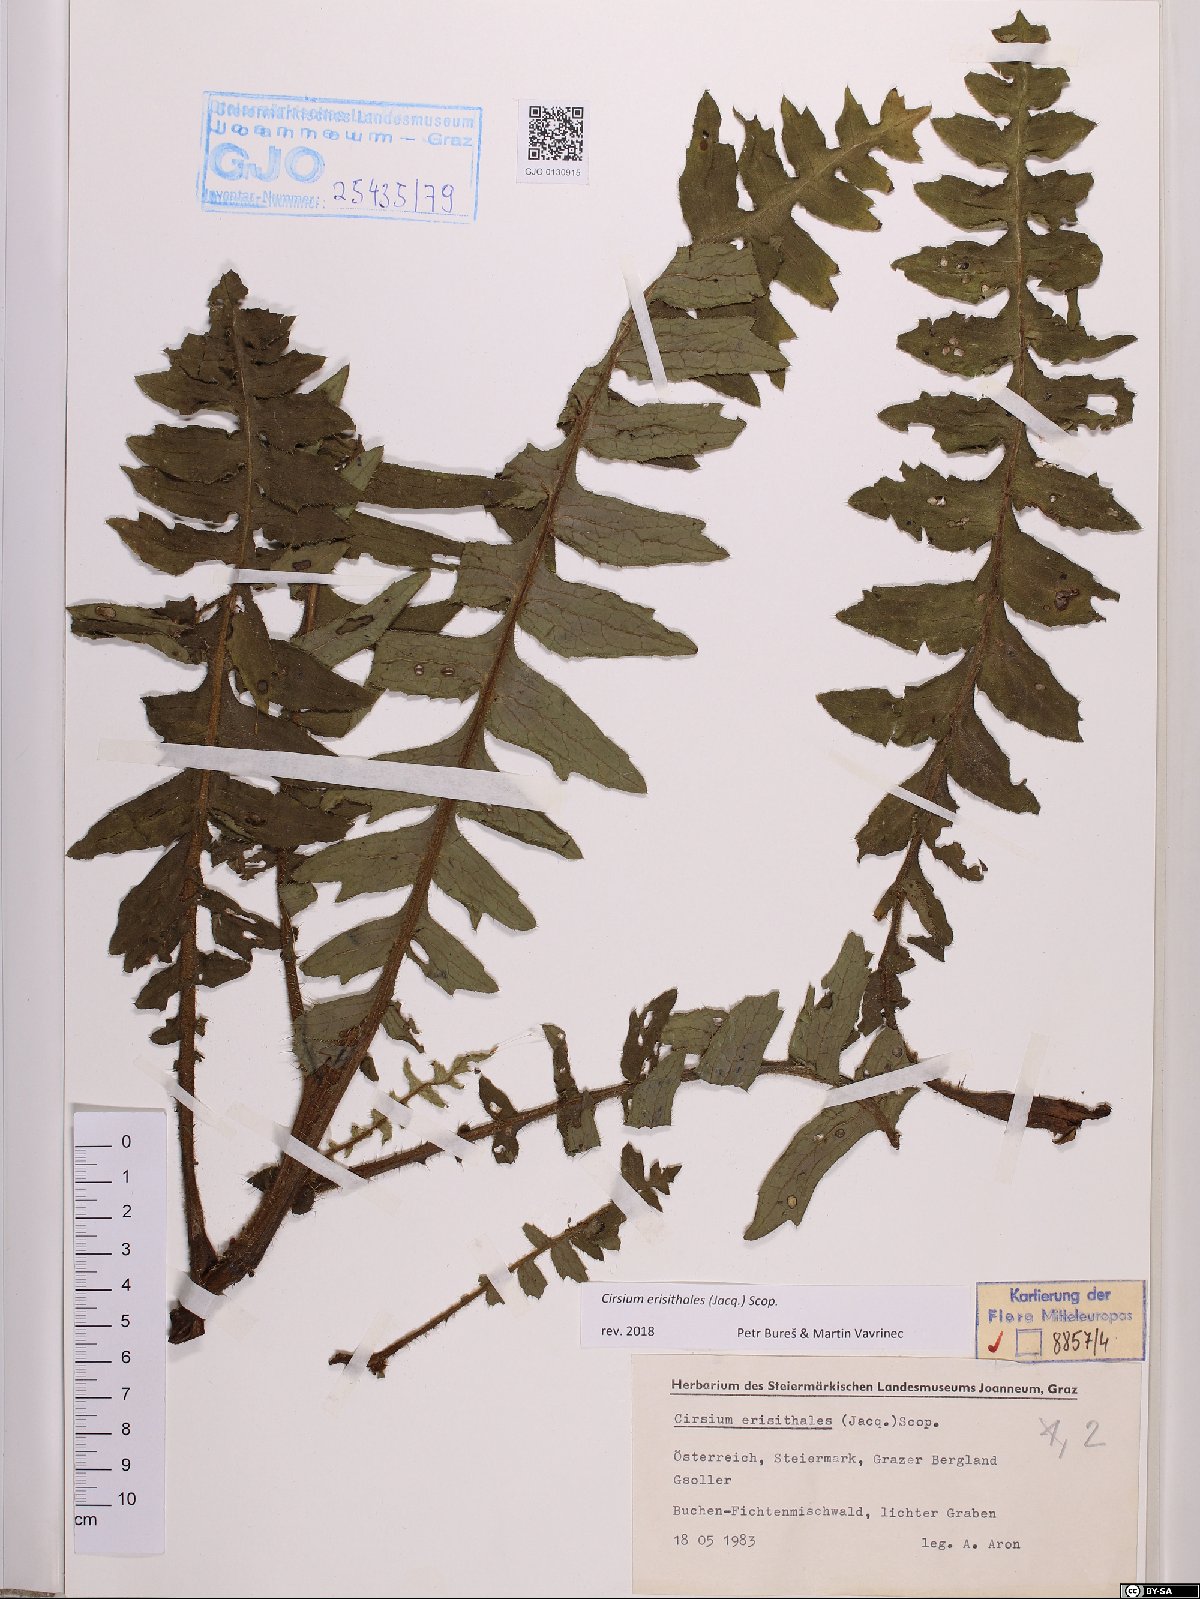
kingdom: Plantae
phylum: Tracheophyta
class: Magnoliopsida
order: Asterales
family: Asteraceae
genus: Cirsium
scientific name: Cirsium erisithales
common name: Yellow thistle
